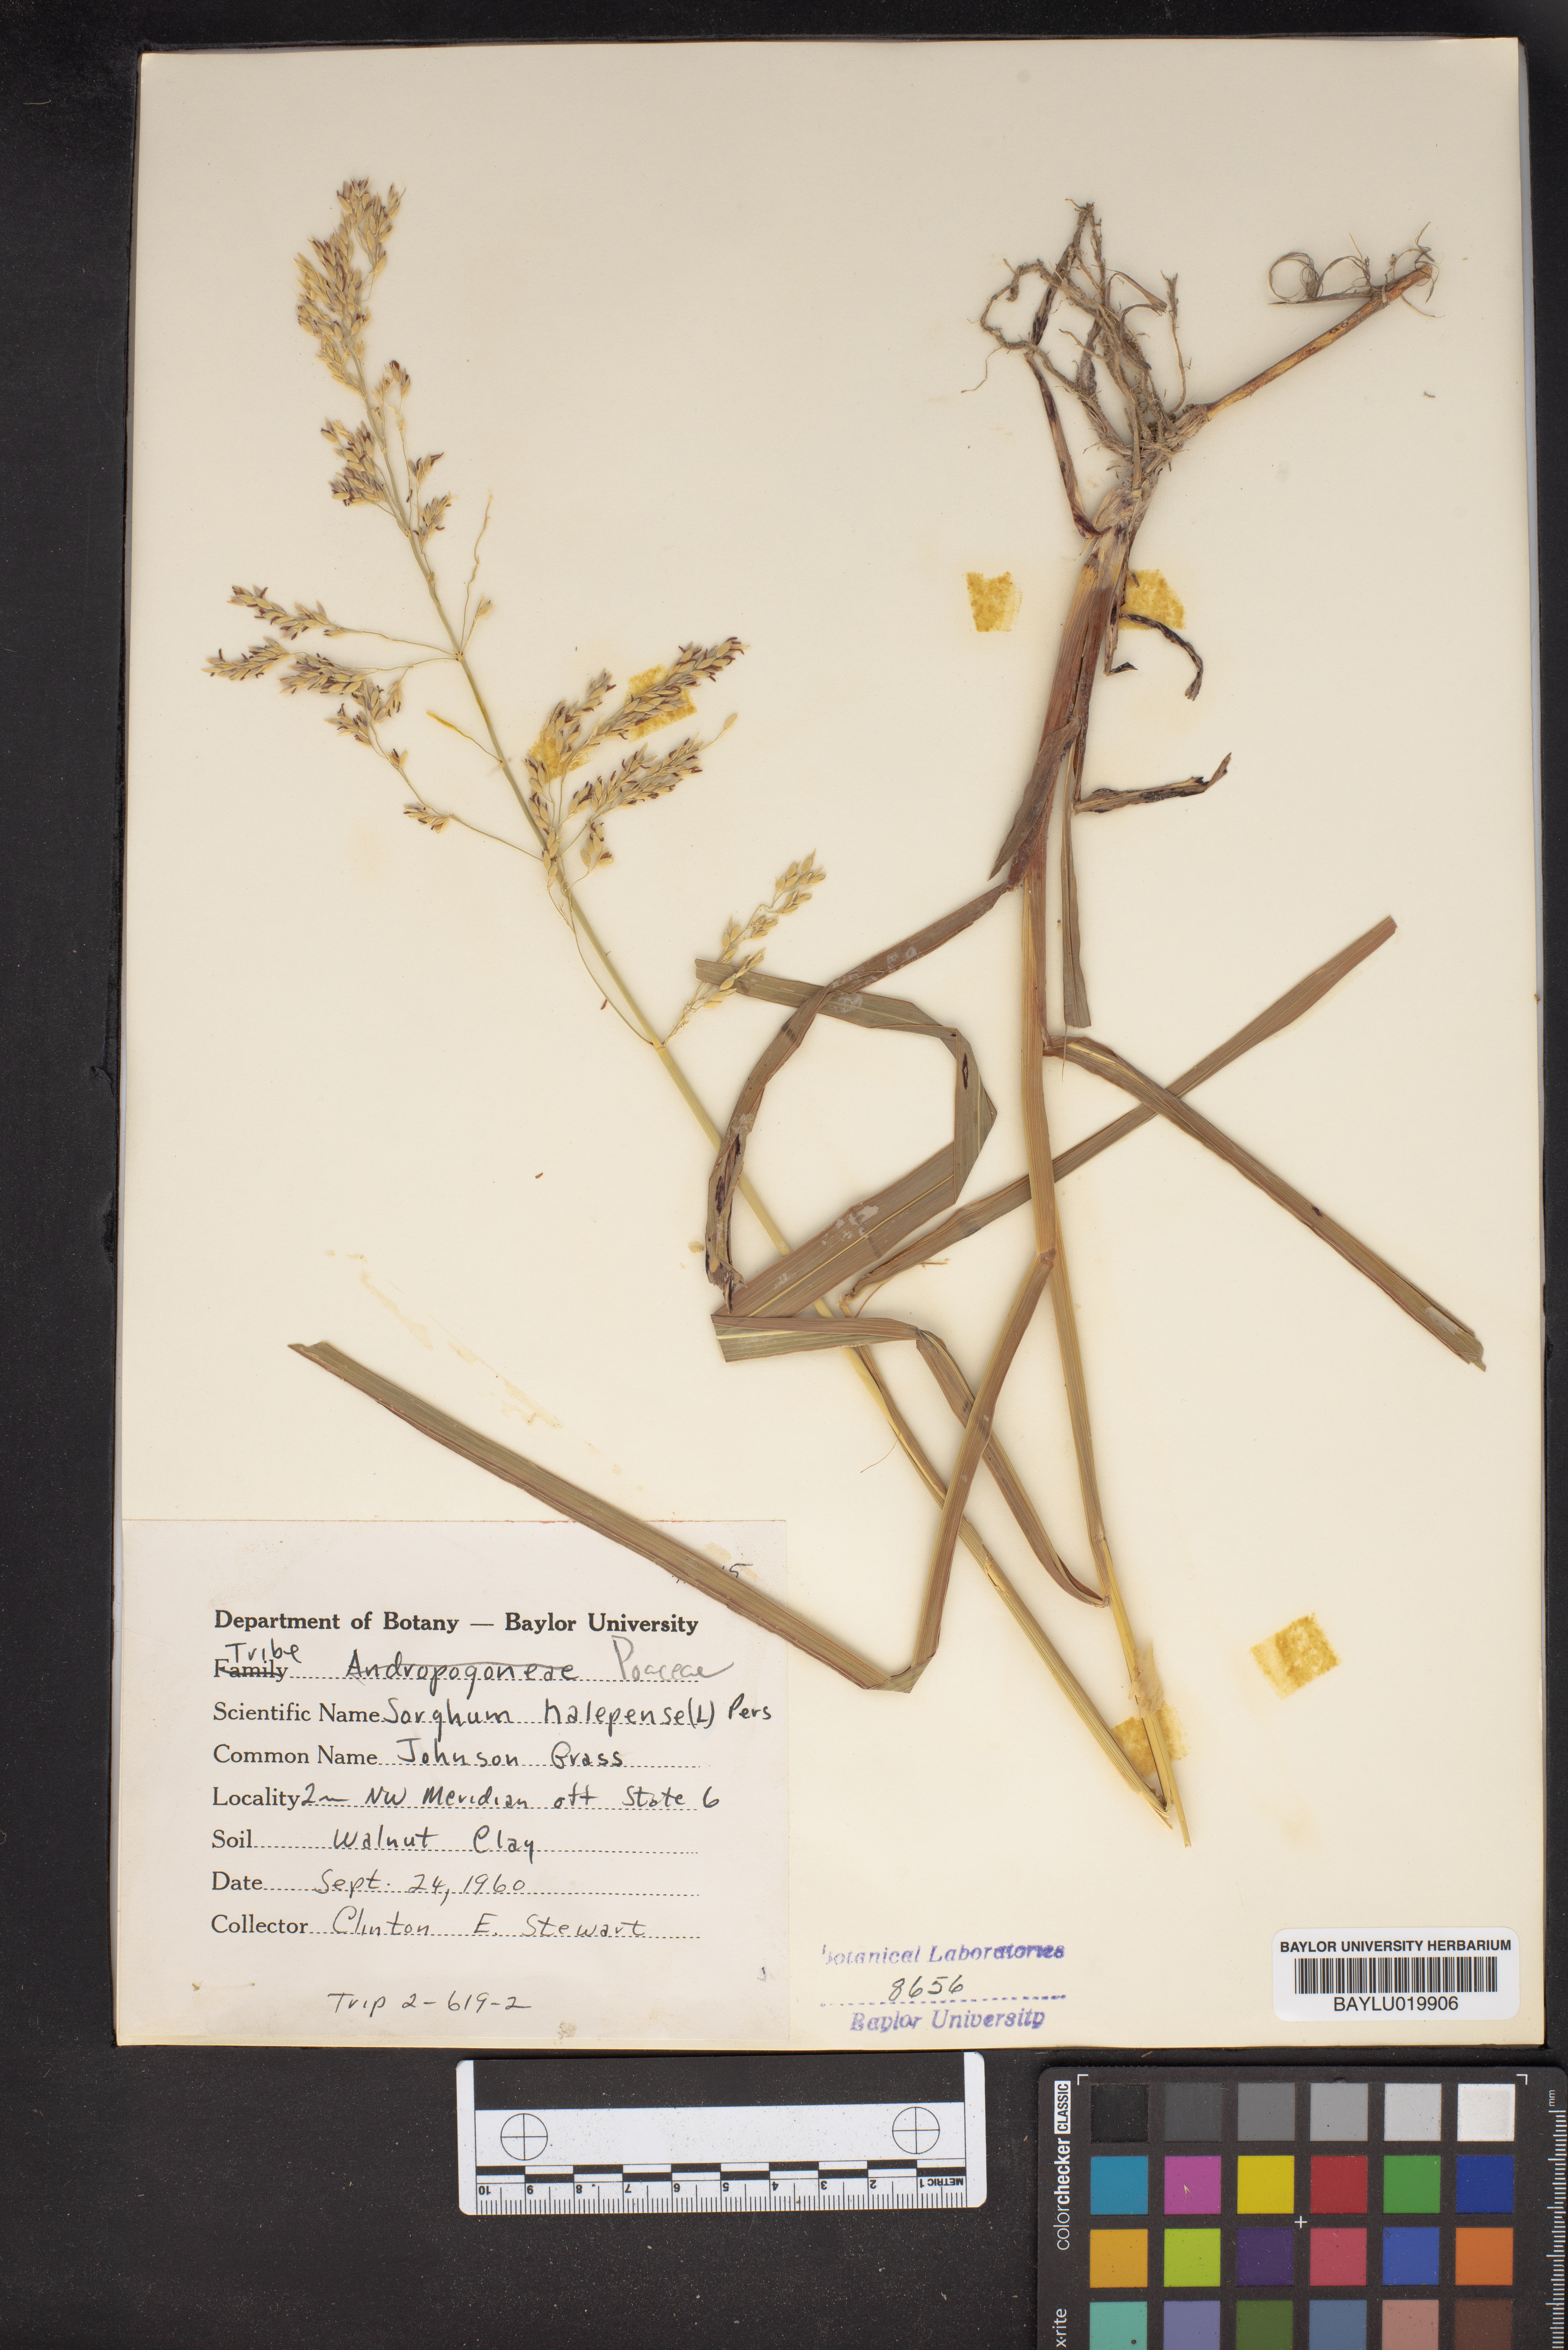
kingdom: Plantae
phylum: Tracheophyta
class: Liliopsida
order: Poales
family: Poaceae
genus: Sorghum
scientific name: Sorghum halepense
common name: Johnson-grass
